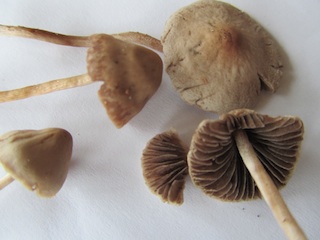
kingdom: Fungi
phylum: Basidiomycota
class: Agaricomycetes
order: Agaricales
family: Bolbitiaceae
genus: Panaeolina
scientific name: Panaeolina foenisecii
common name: høslætsvamp
